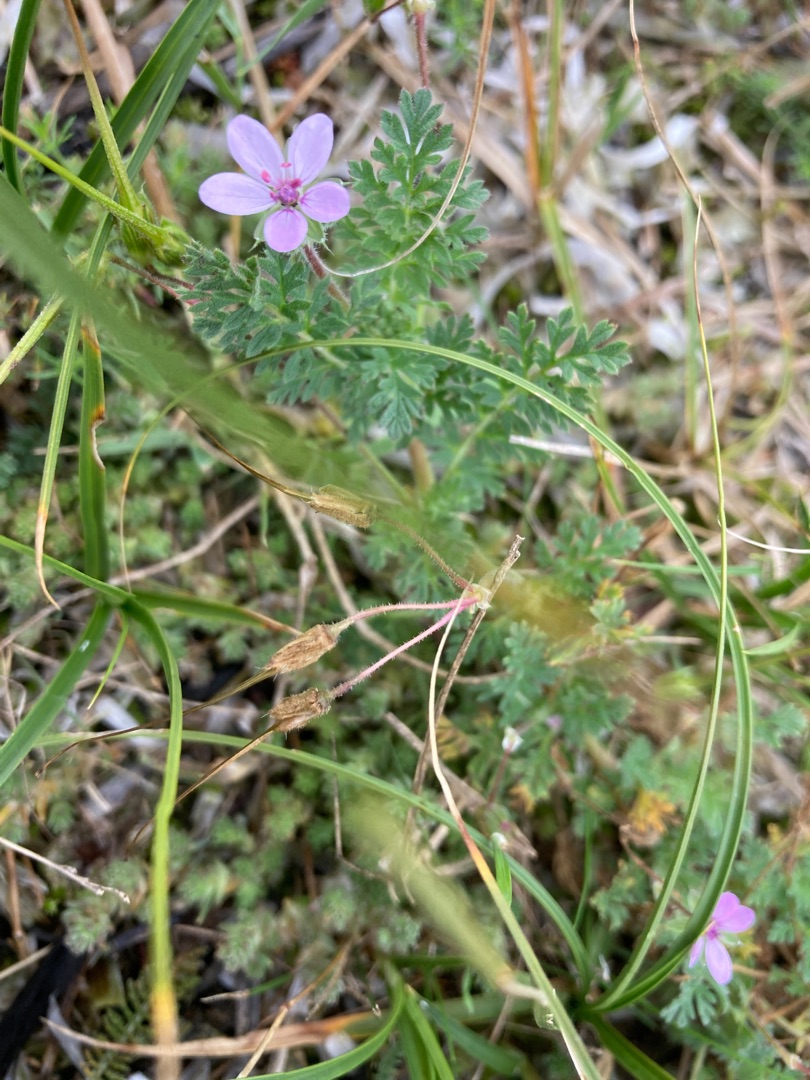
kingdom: Plantae
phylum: Tracheophyta
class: Magnoliopsida
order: Geraniales
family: Geraniaceae
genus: Erodium
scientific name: Erodium cicutarium
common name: Hejrenæb
